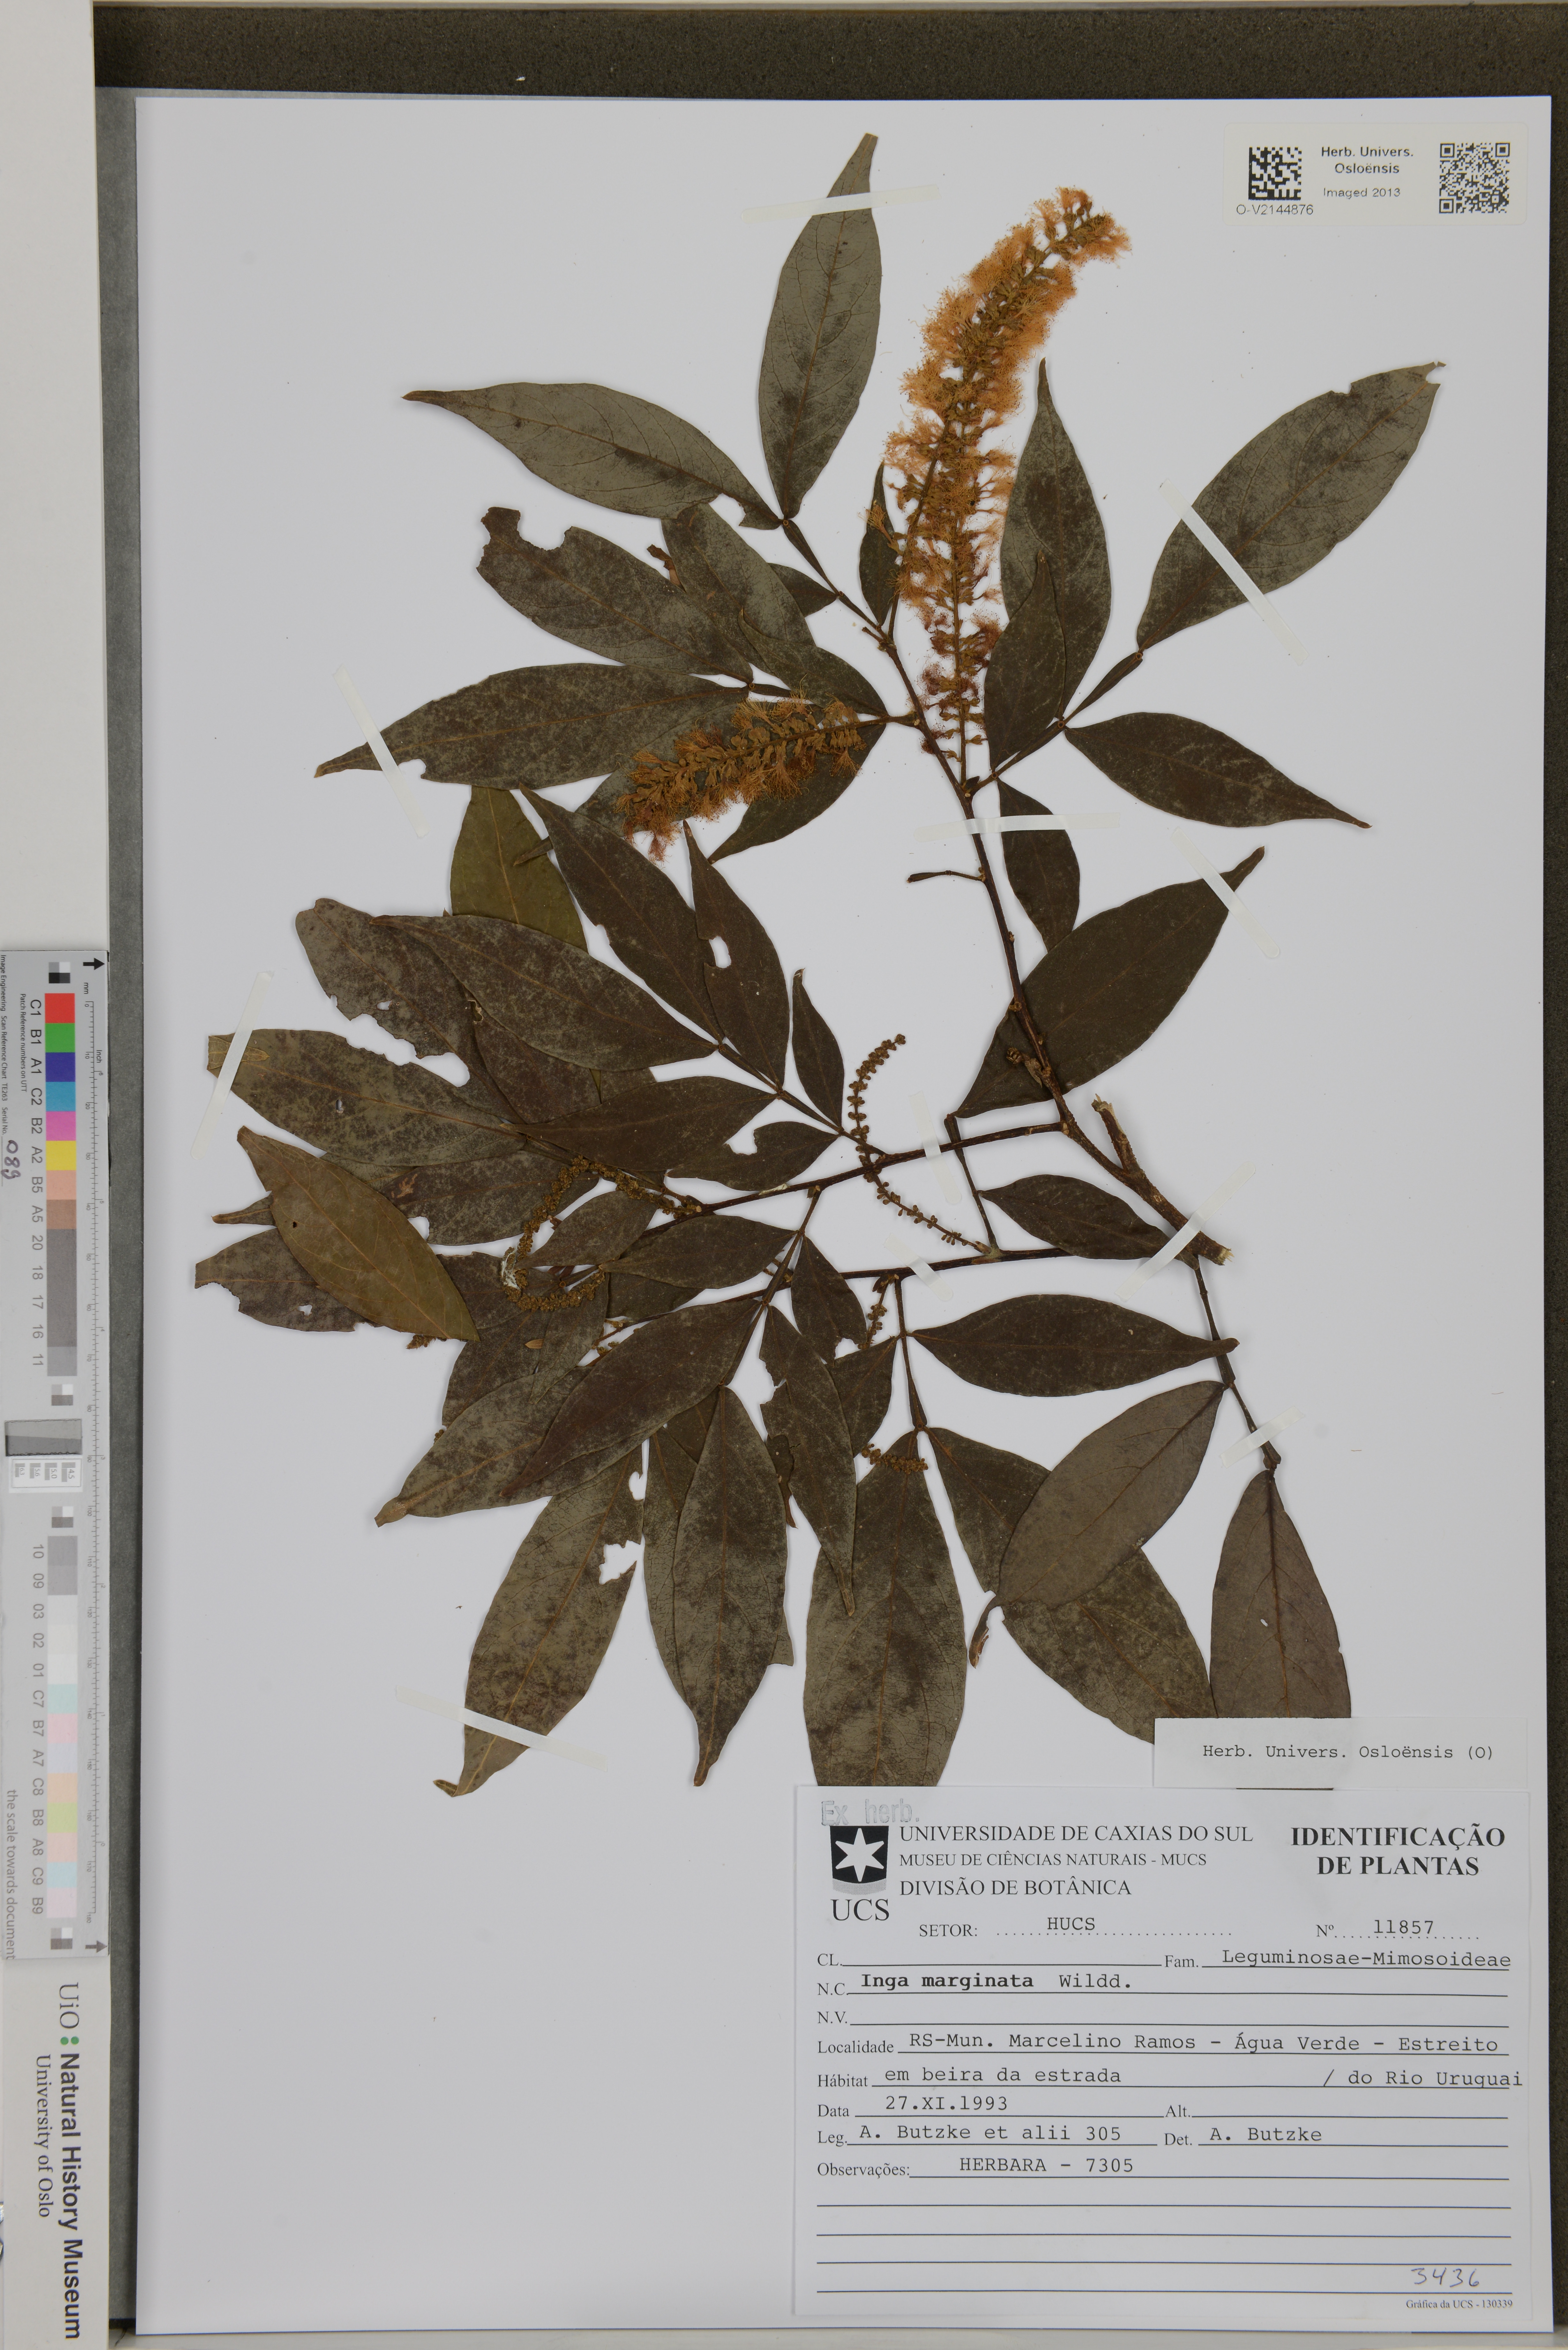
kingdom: Plantae
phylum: Tracheophyta
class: Magnoliopsida
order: Fabales
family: Fabaceae
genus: Inga
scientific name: Inga marginata
